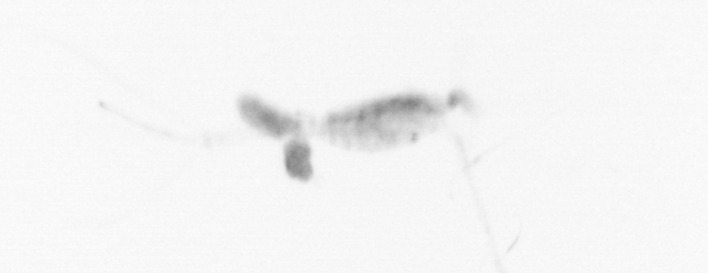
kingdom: Animalia
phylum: Arthropoda
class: Copepoda
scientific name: Copepoda
